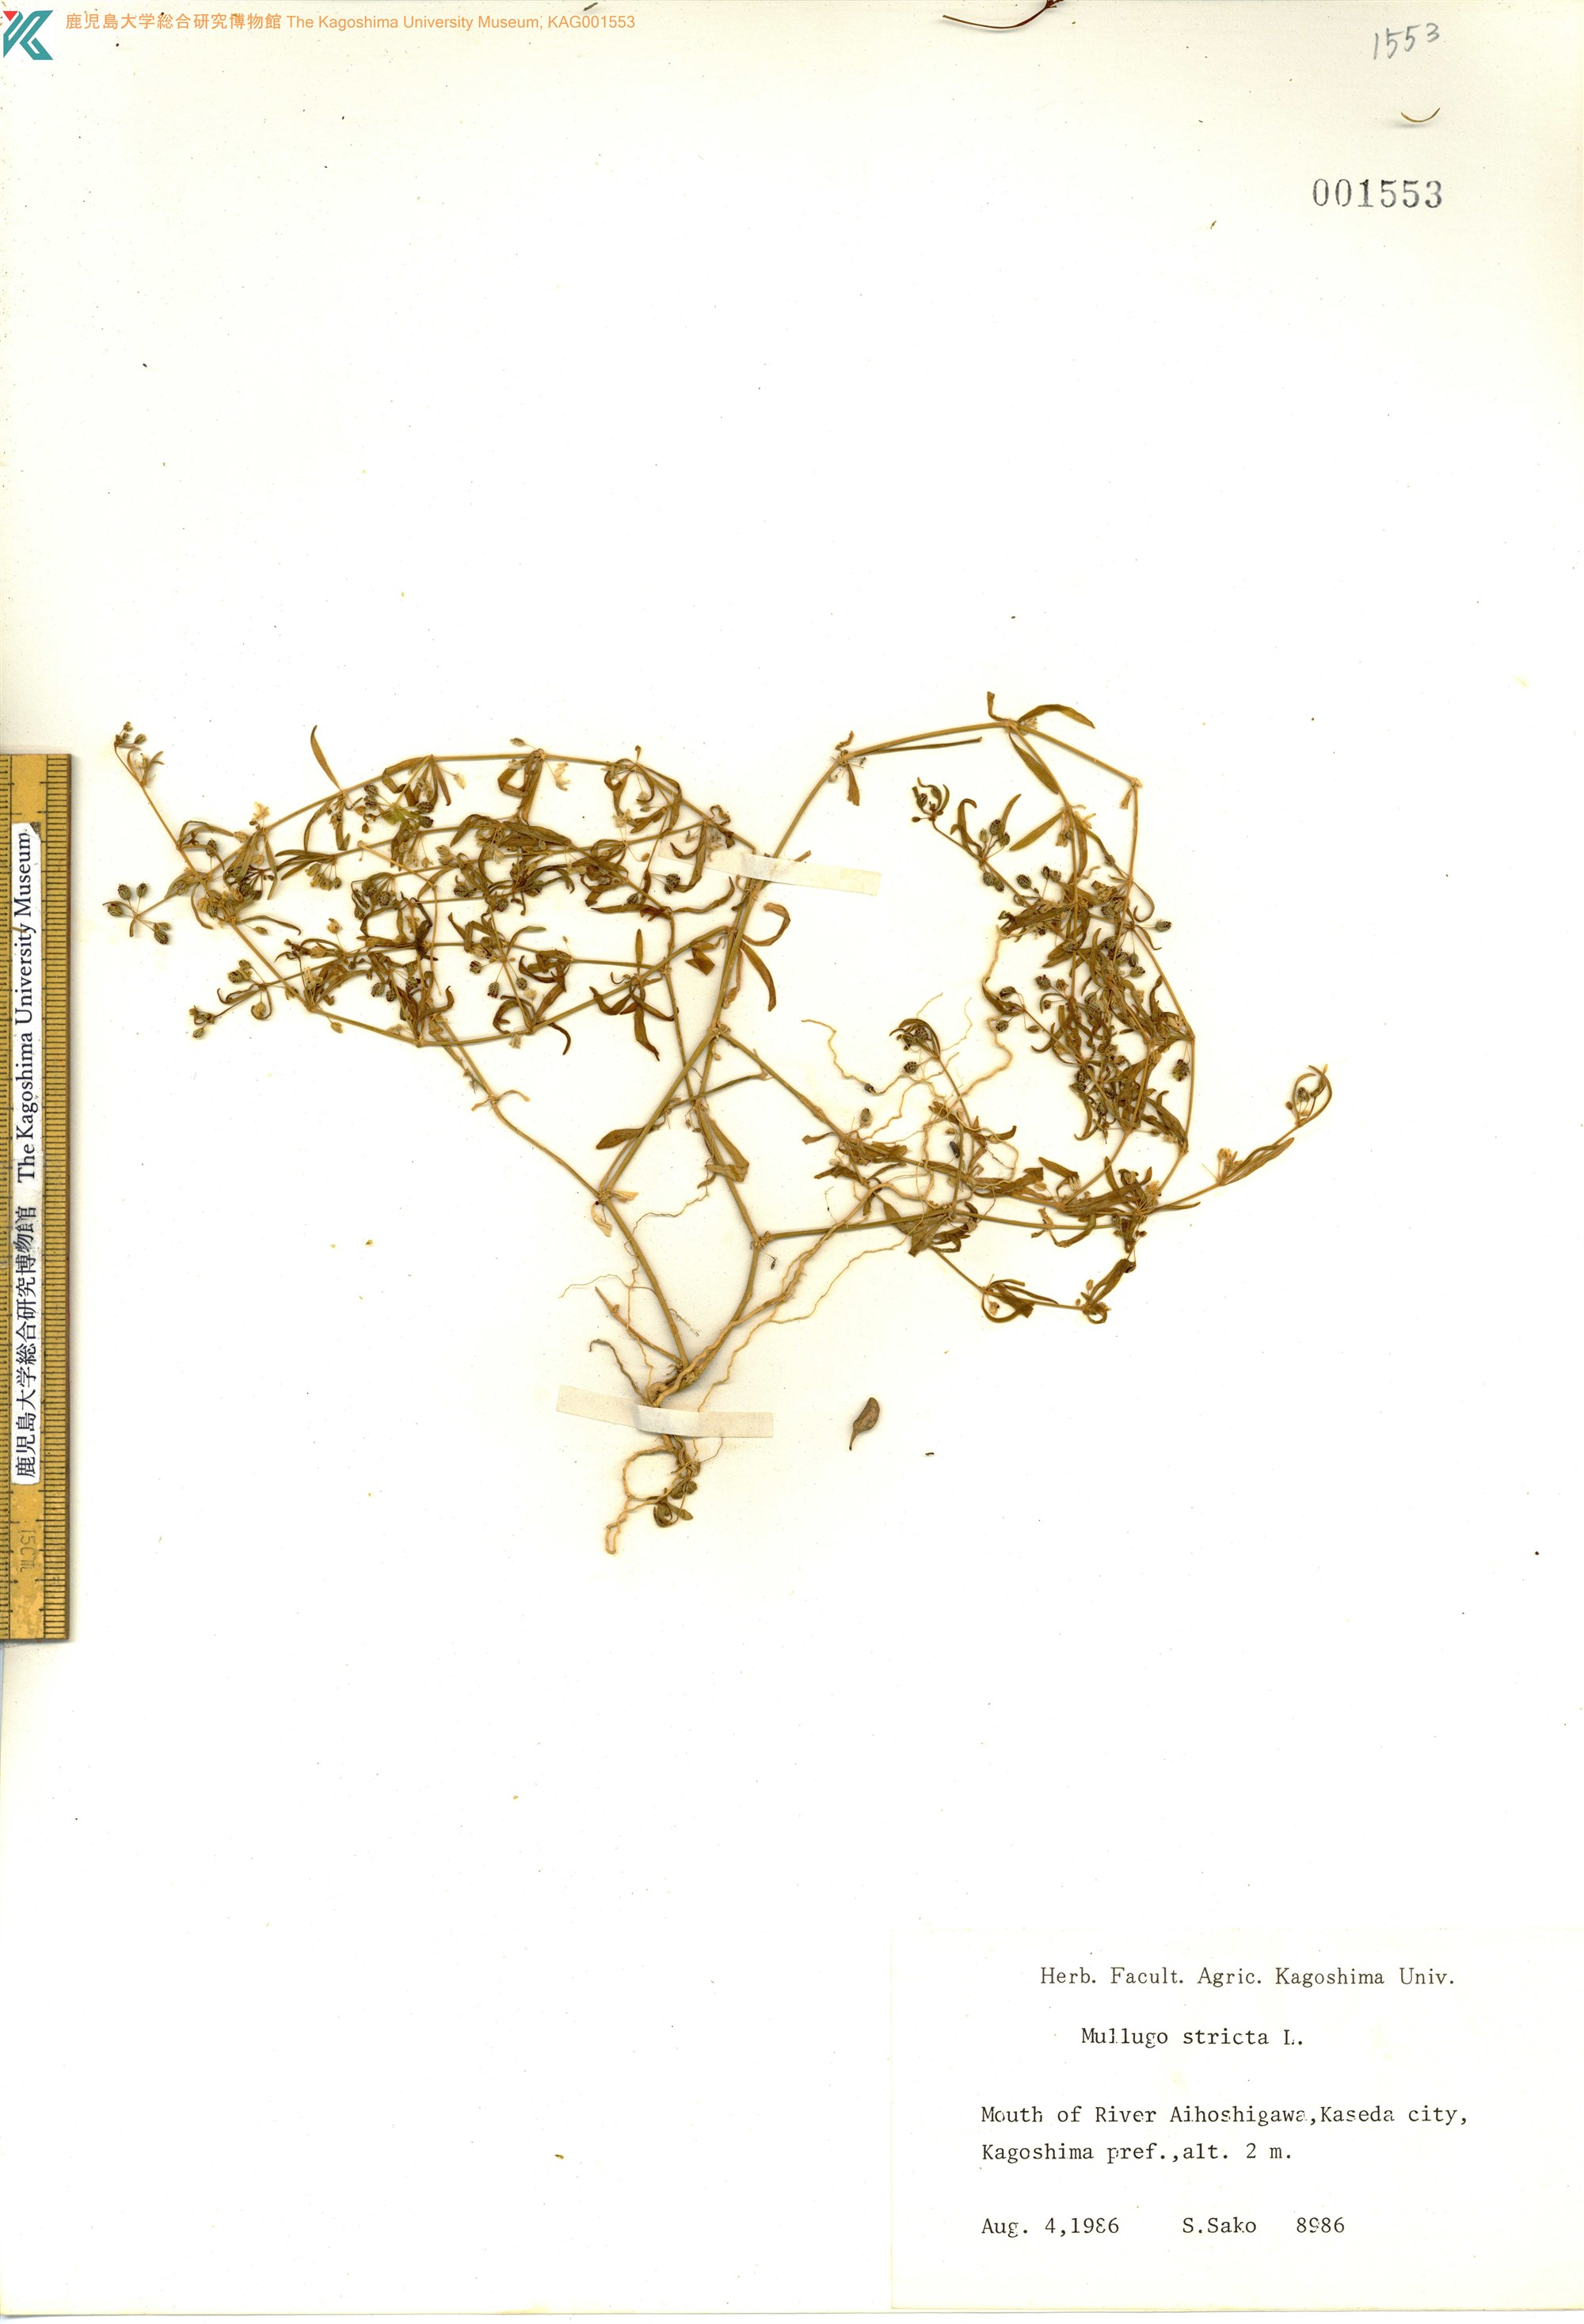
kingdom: Plantae
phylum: Tracheophyta
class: Magnoliopsida
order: Caryophyllales
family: Molluginaceae
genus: Trigastrotheca
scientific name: Trigastrotheca stricta
